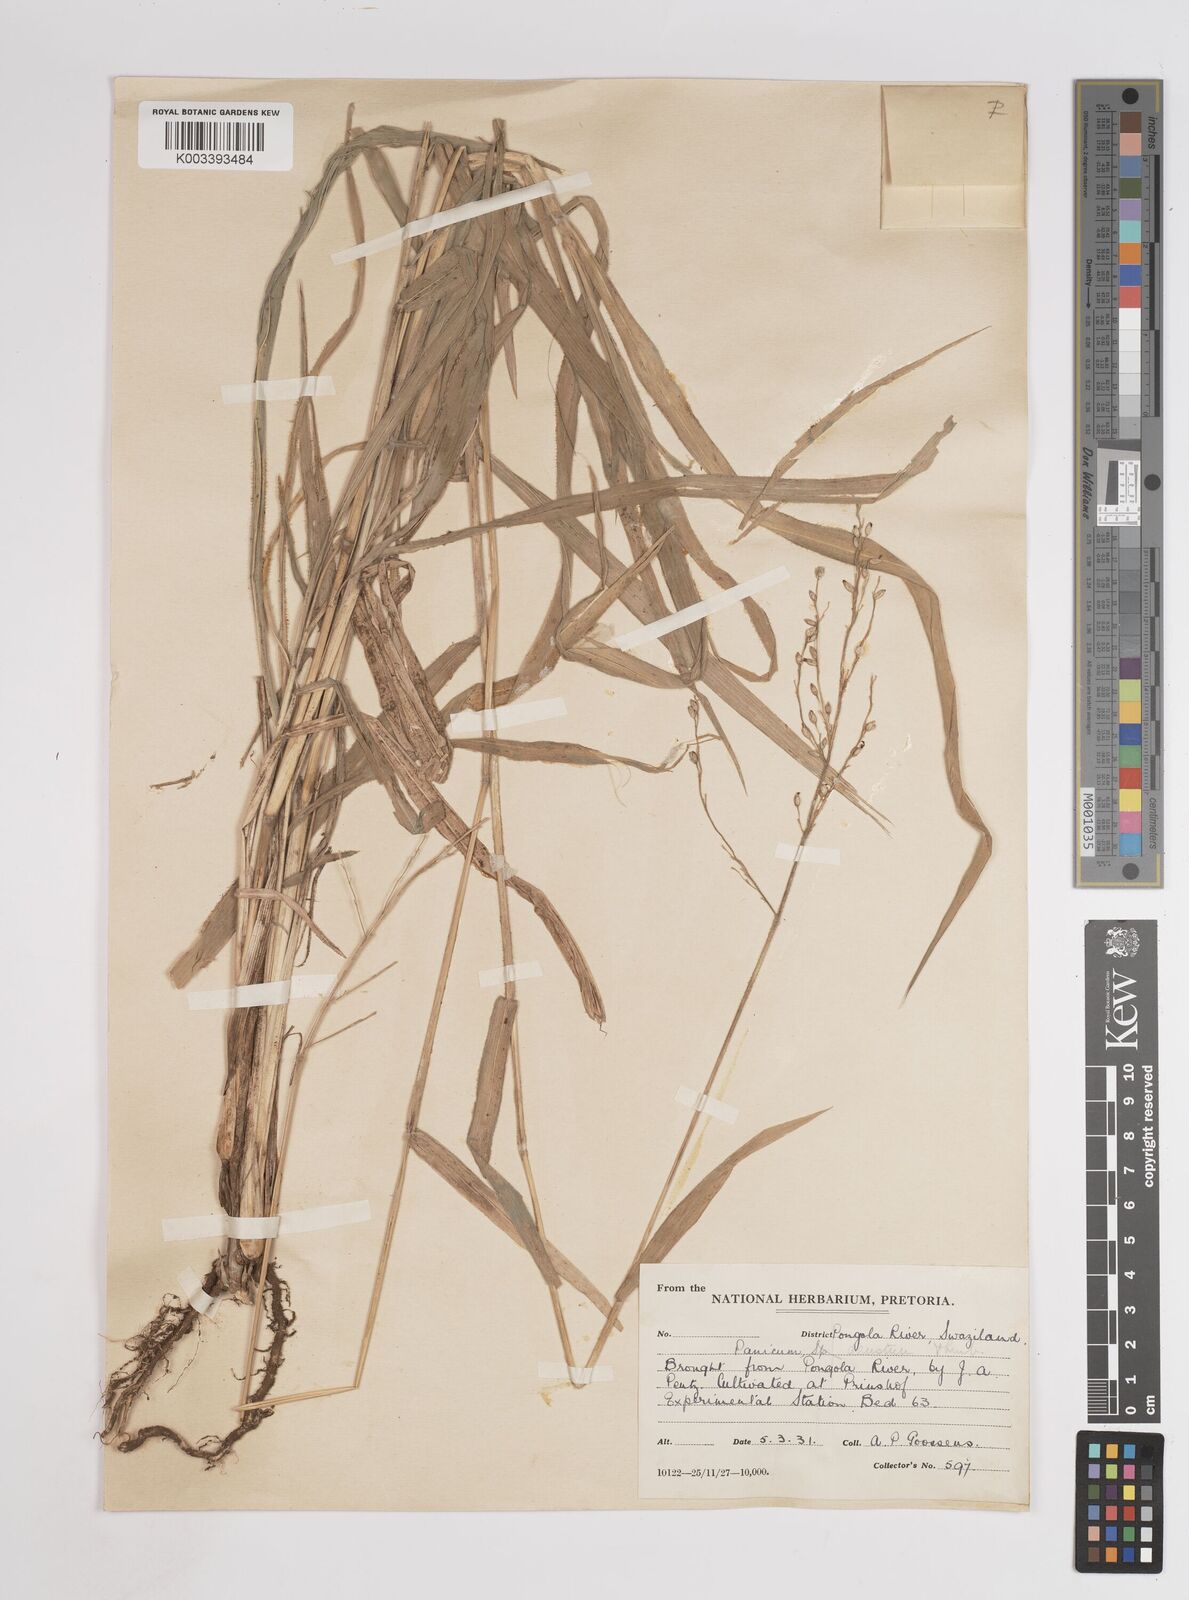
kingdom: Plantae
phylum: Tracheophyta
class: Liliopsida
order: Poales
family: Poaceae
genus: Panicum
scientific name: Panicum deustum
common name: Reed panicum
